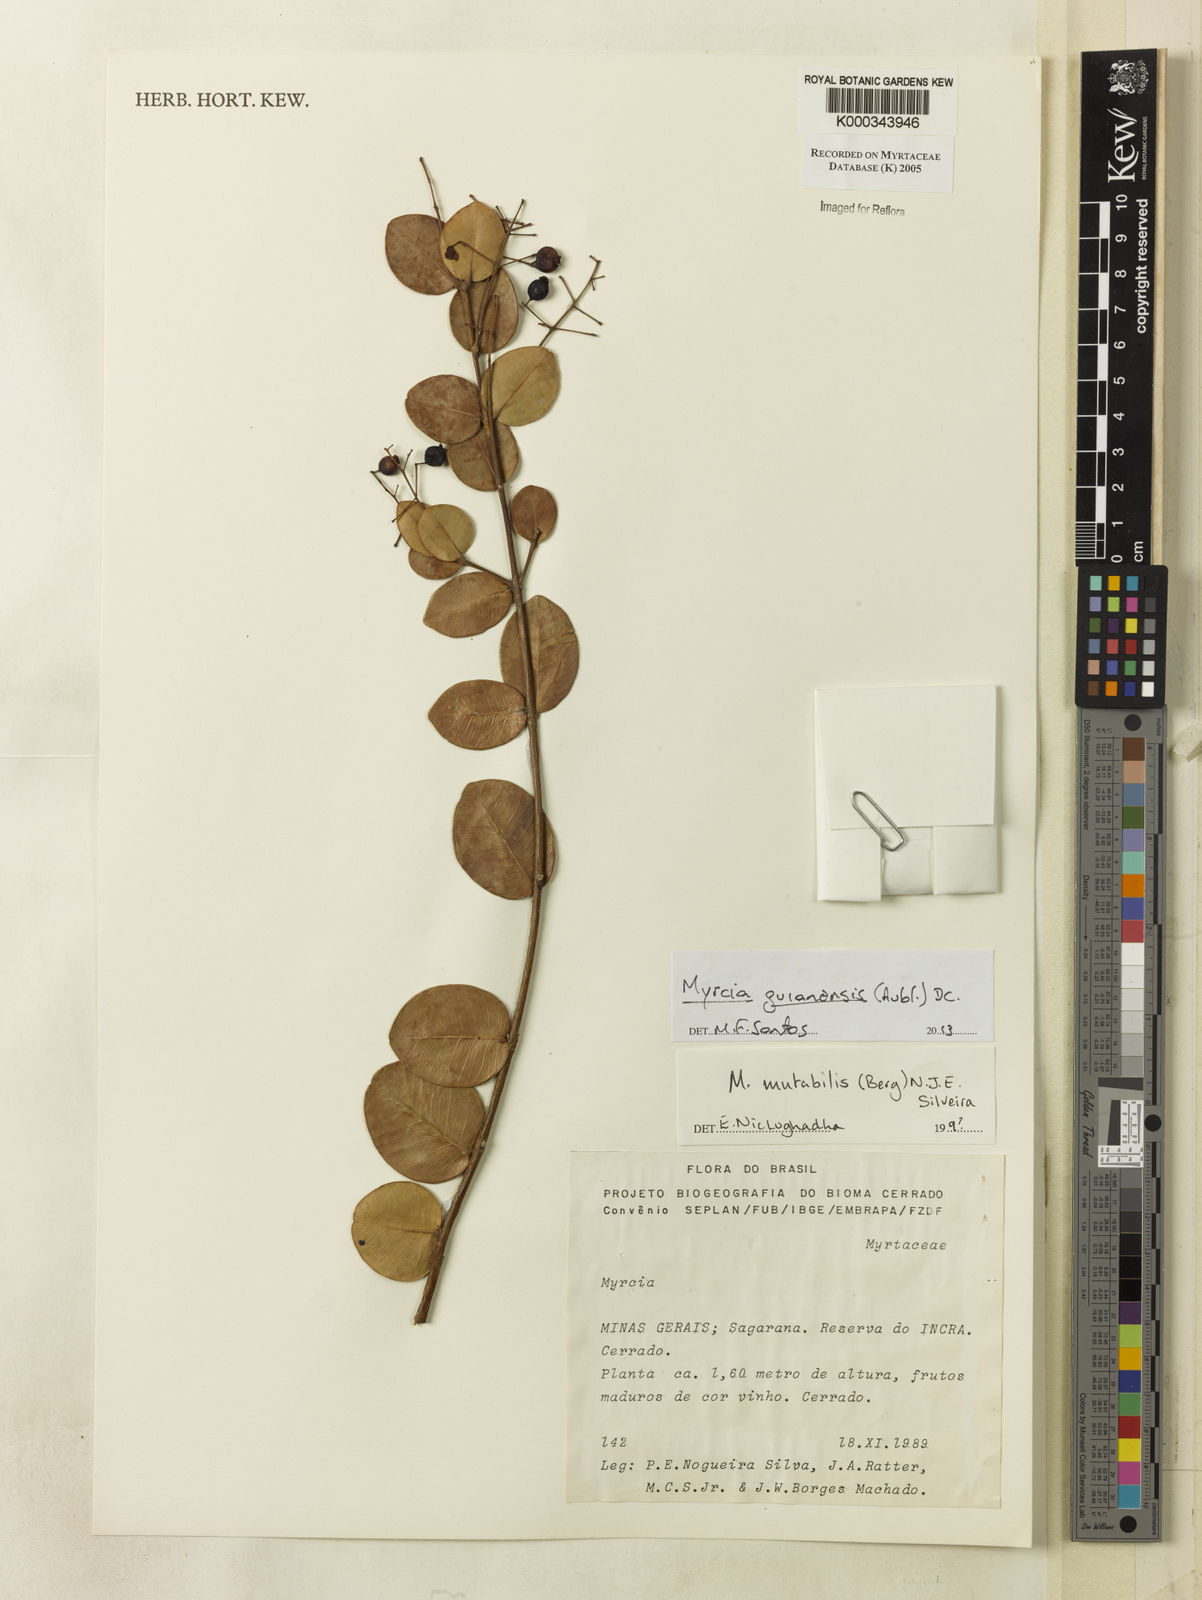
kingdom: Plantae
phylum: Tracheophyta
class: Magnoliopsida
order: Myrtales
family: Myrtaceae
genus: Myrcia
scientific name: Myrcia mutabilis
